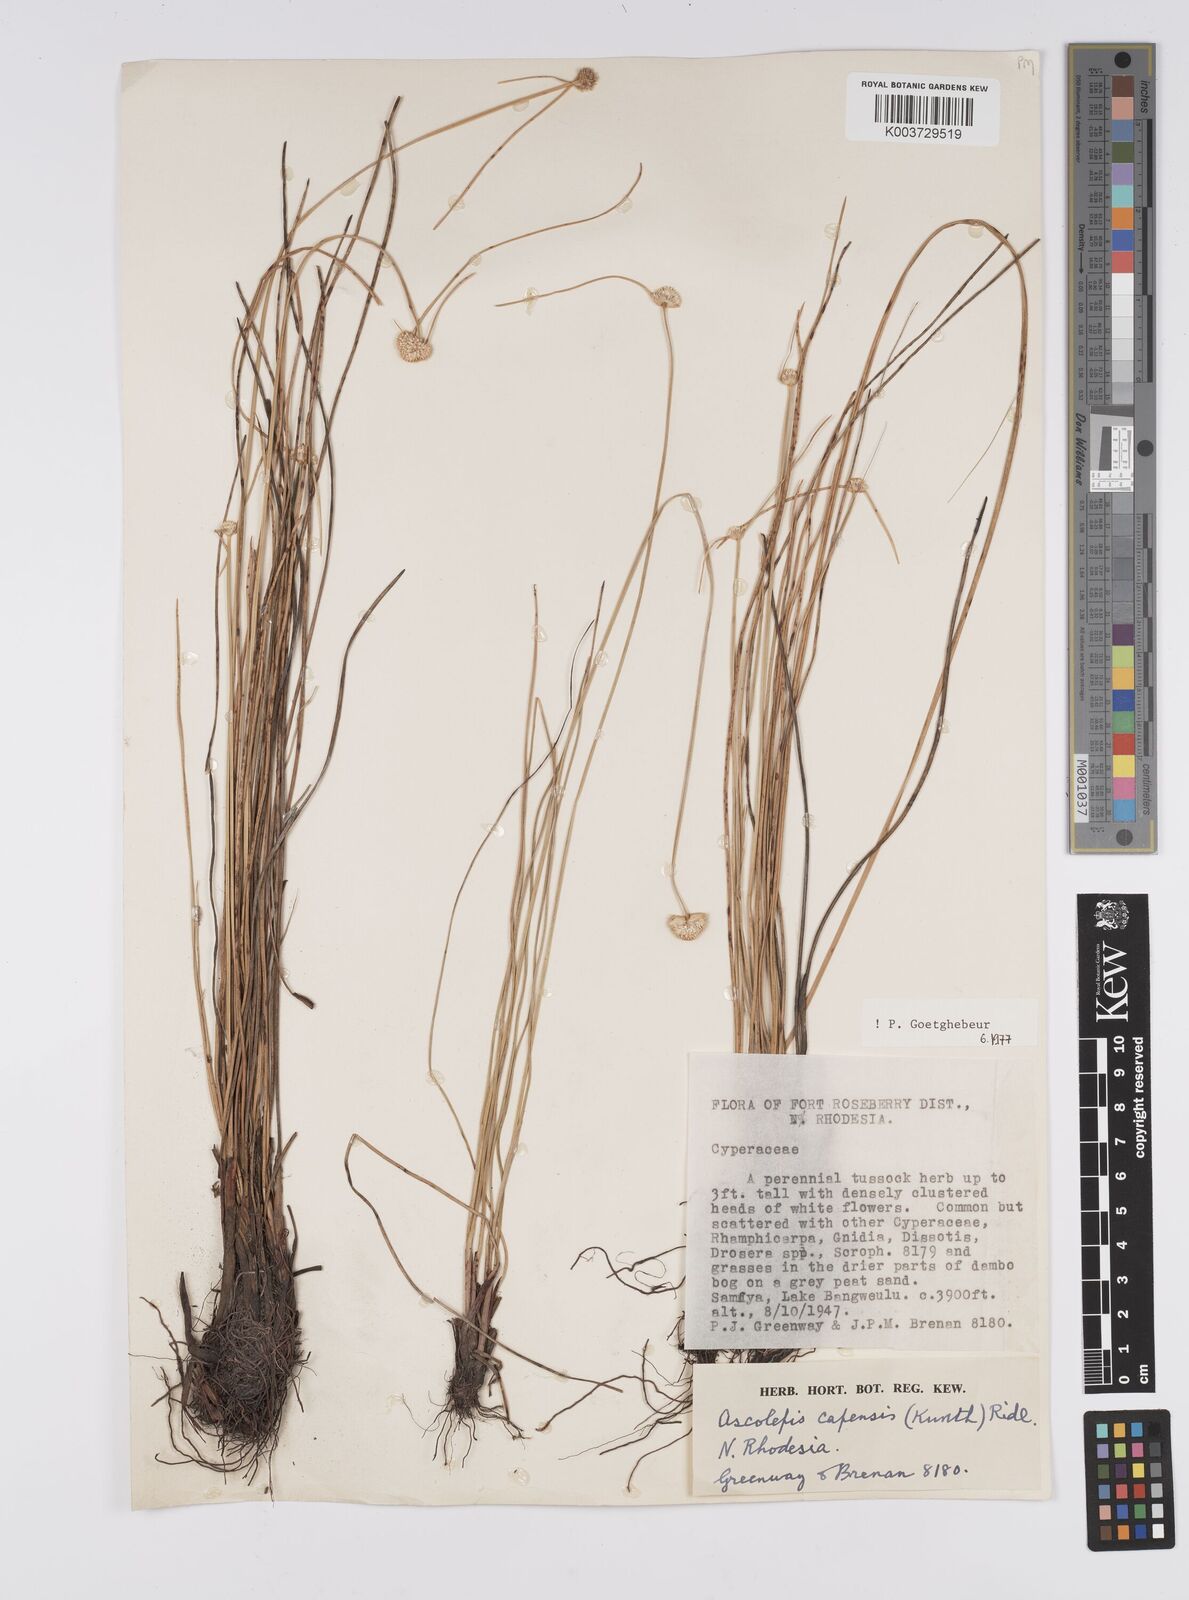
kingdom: Plantae
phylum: Tracheophyta
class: Liliopsida
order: Poales
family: Cyperaceae
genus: Cyperus
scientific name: Cyperus
